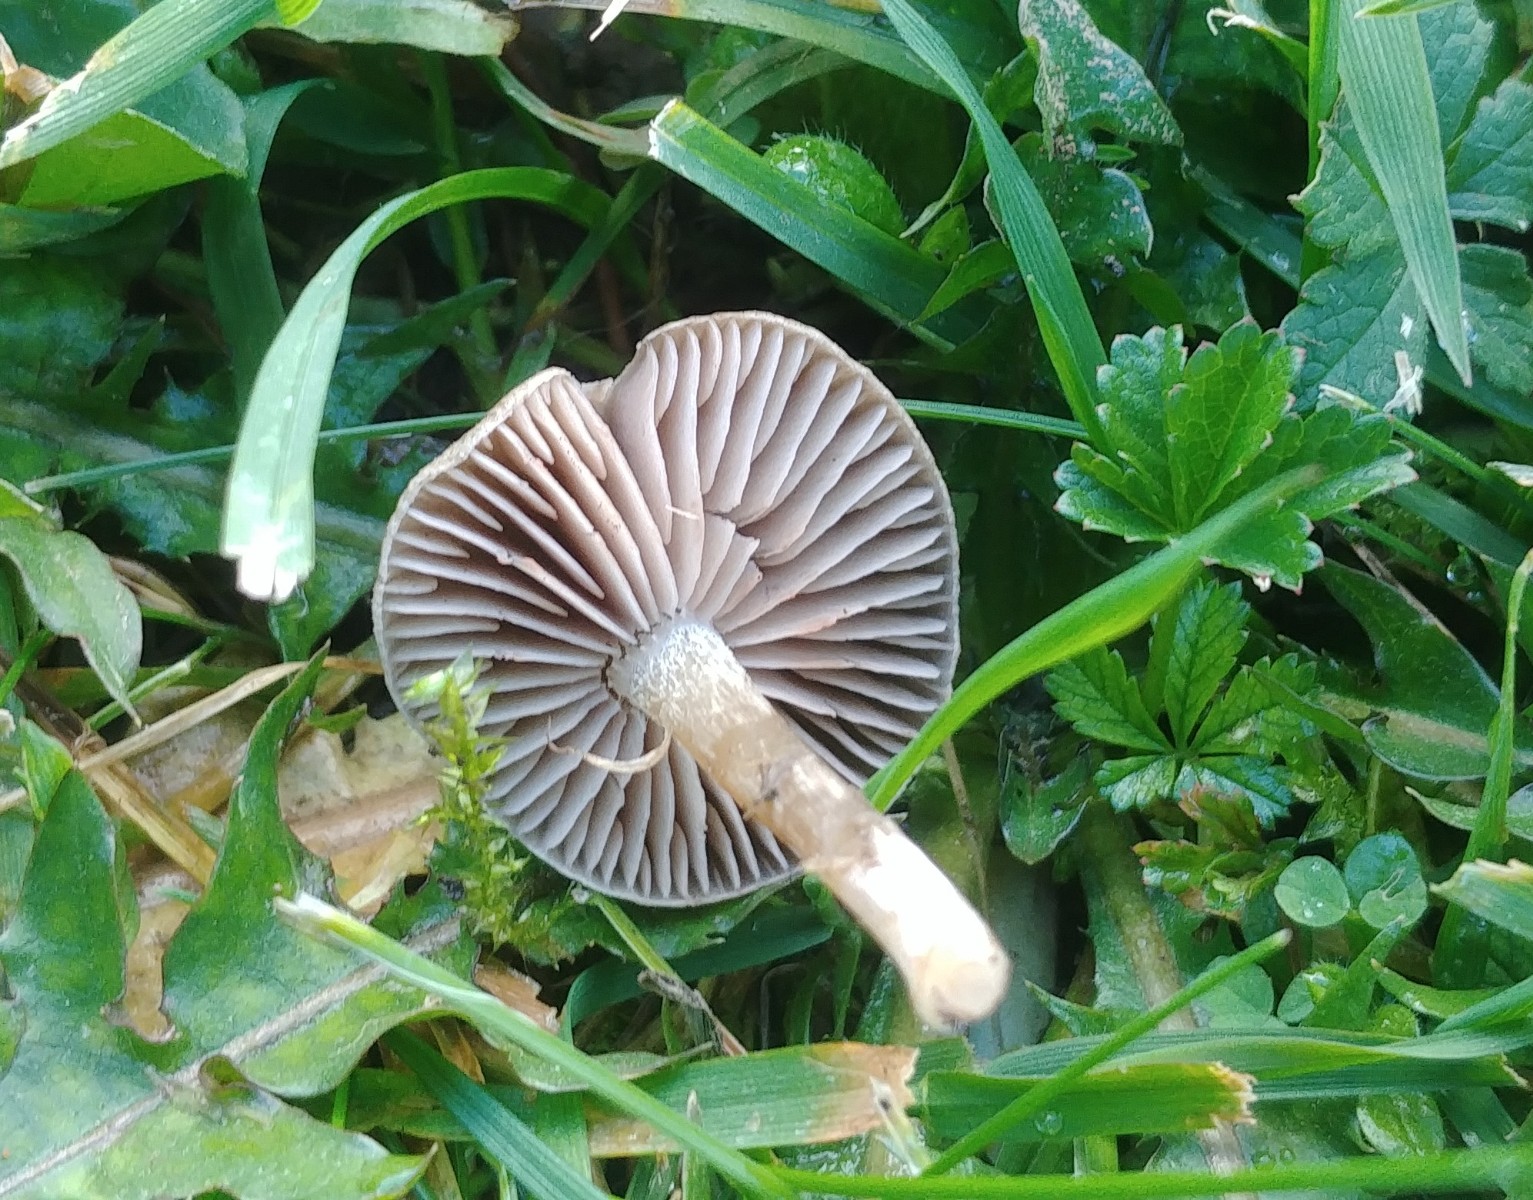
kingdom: Fungi
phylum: Basidiomycota
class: Agaricomycetes
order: Agaricales
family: Entolomataceae
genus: Entoloma
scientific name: Entoloma
